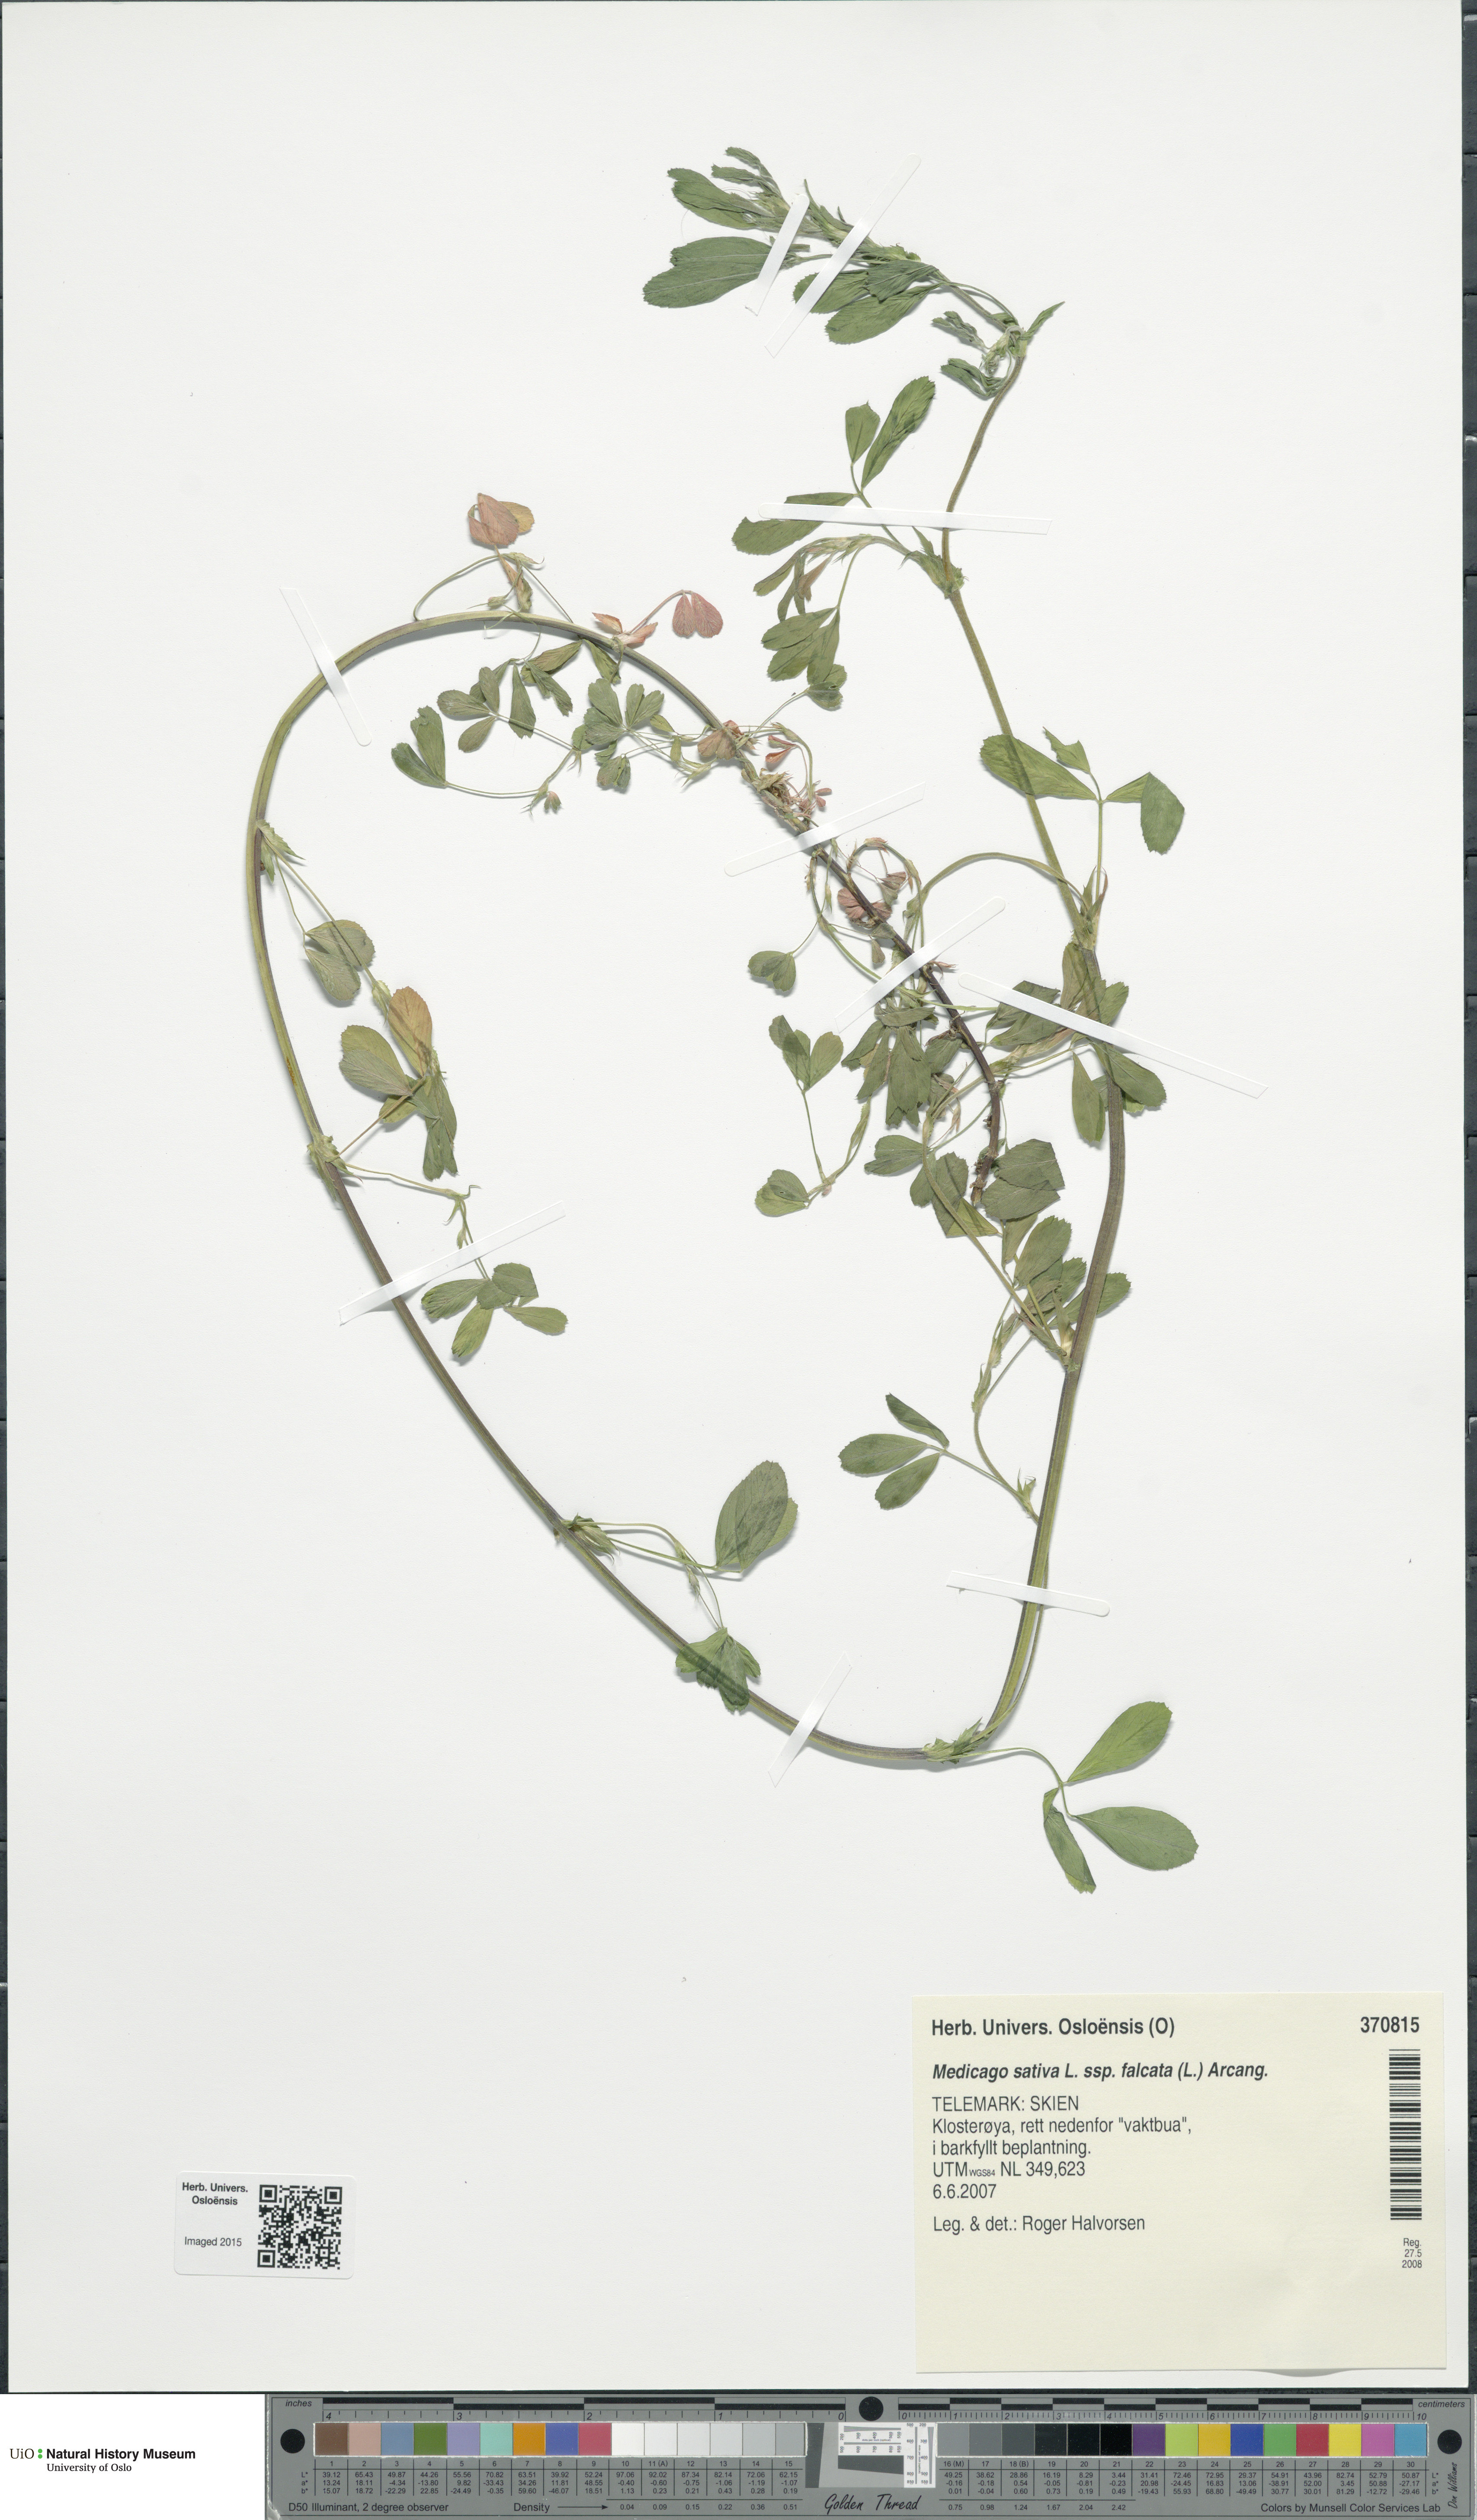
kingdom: Plantae
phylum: Tracheophyta
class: Magnoliopsida
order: Fabales
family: Fabaceae
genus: Medicago
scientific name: Medicago falcata
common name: Sickle medick
